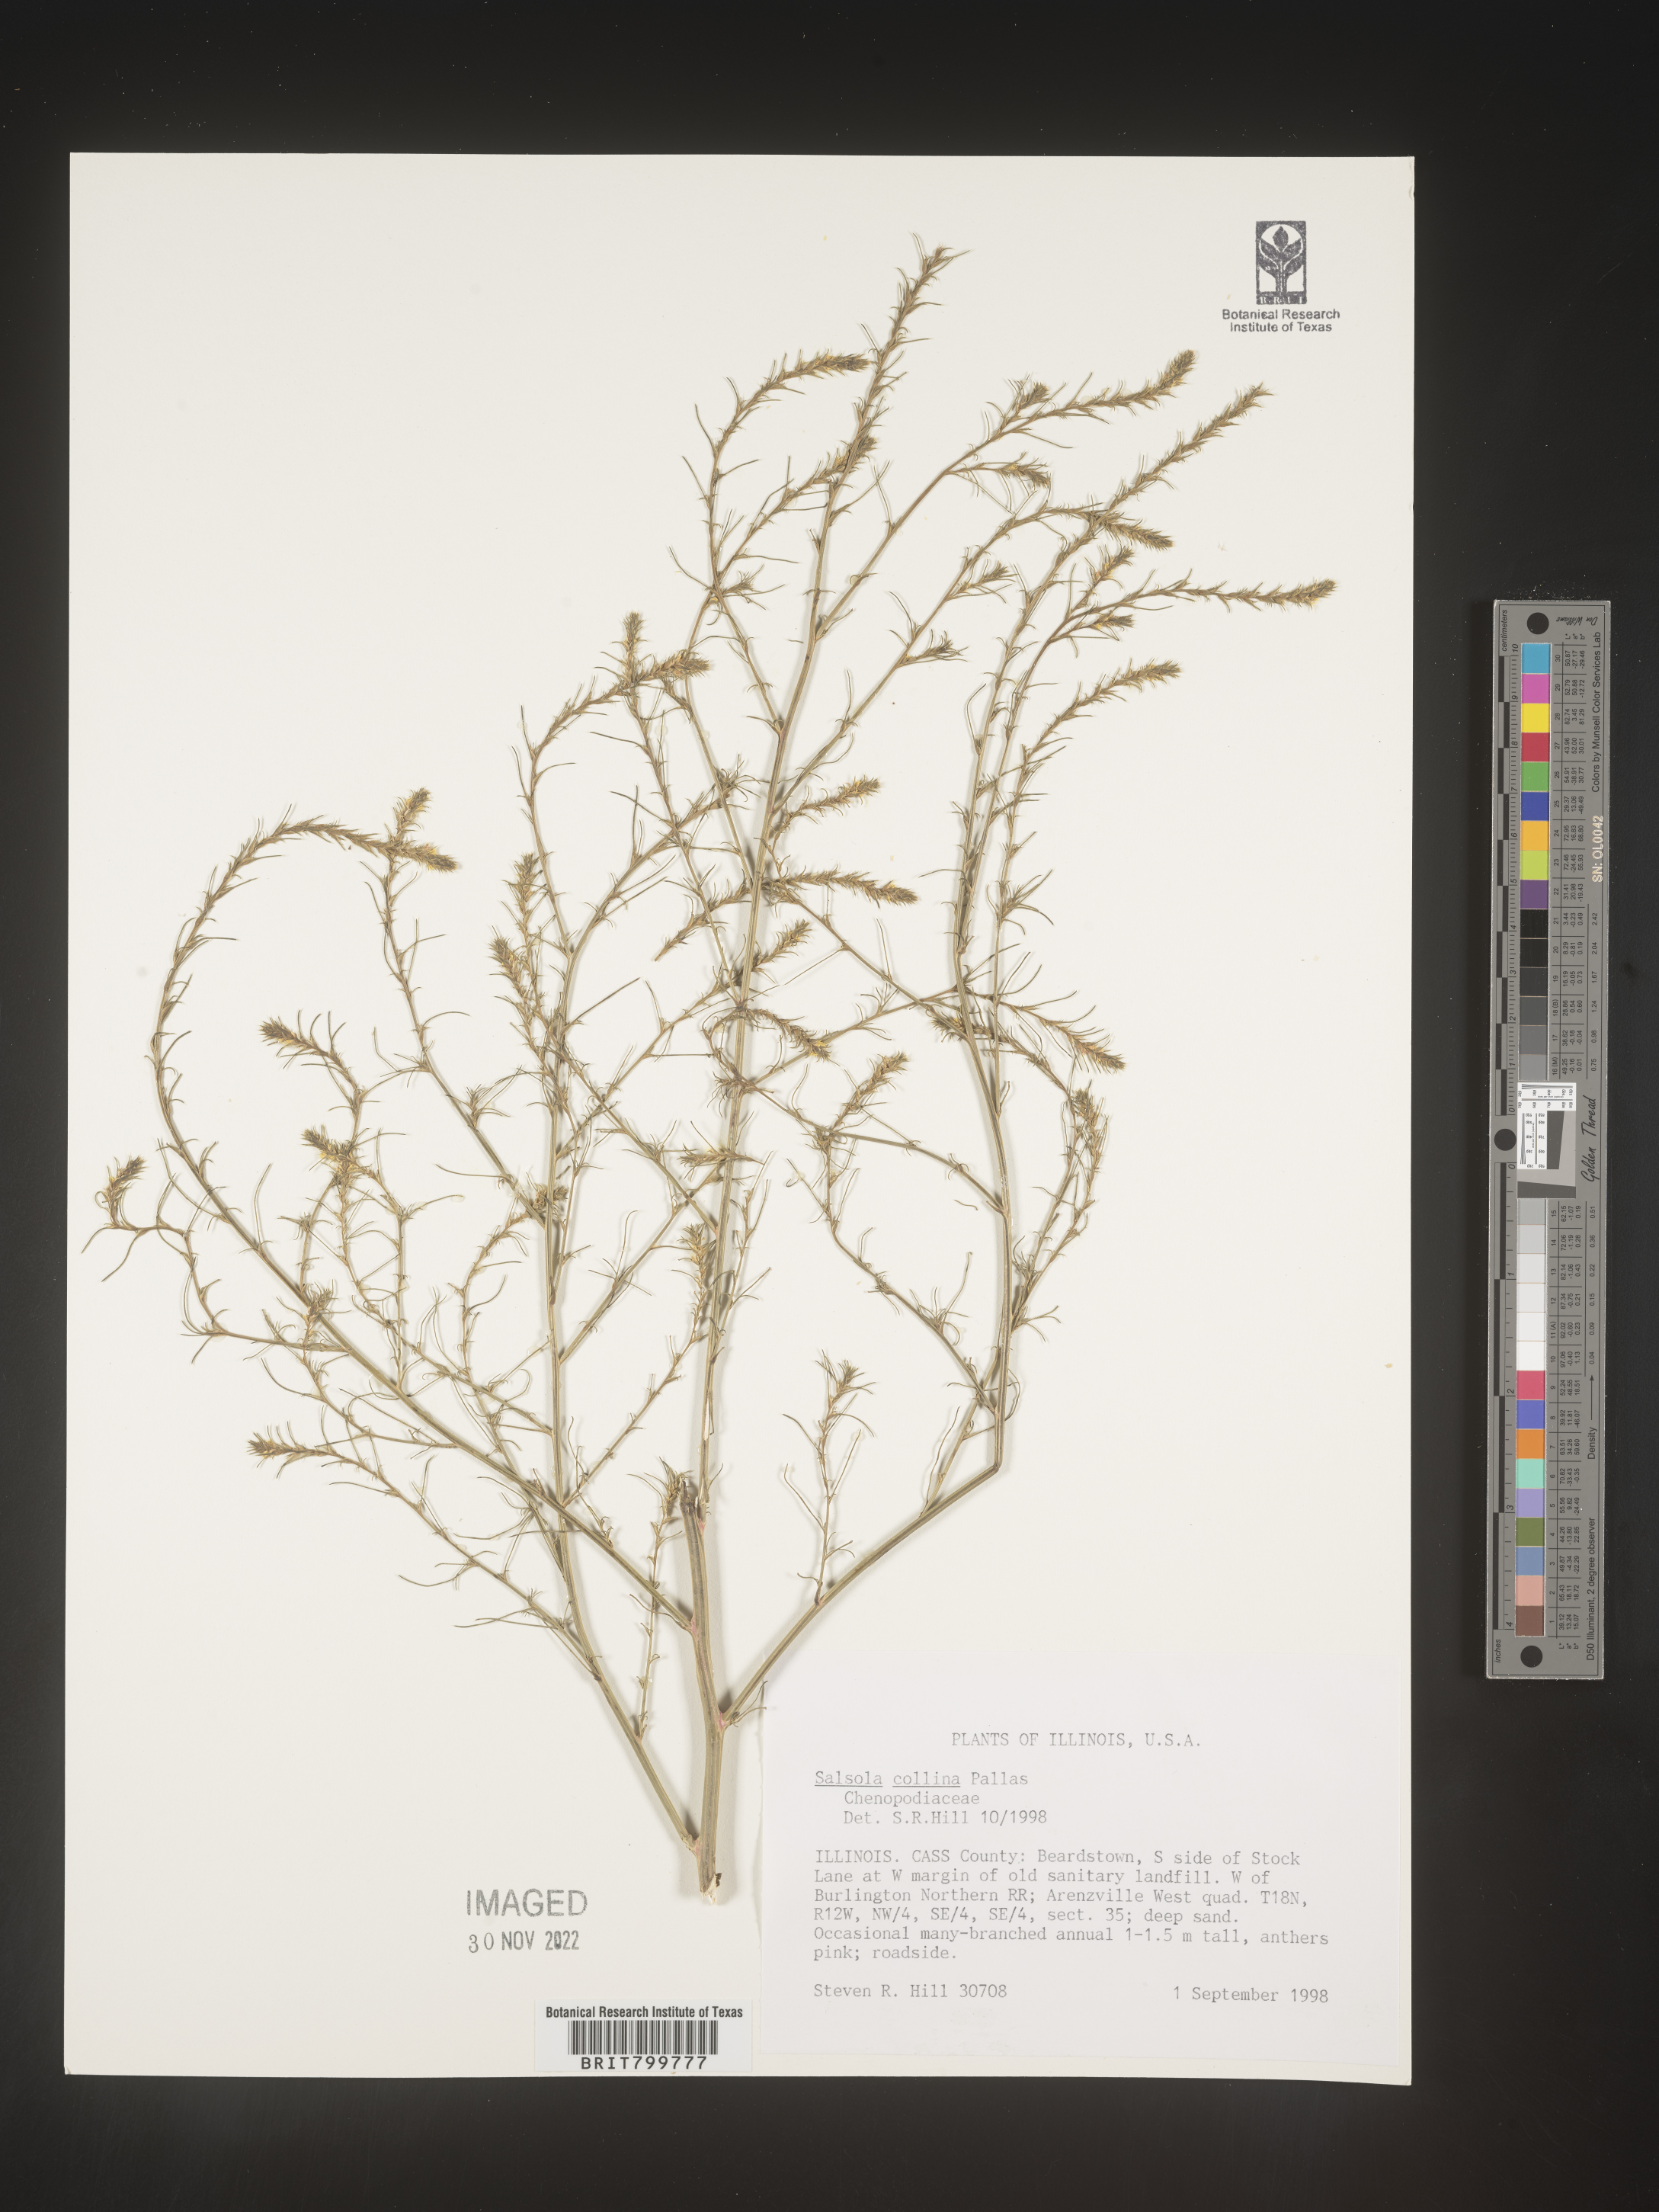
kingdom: Plantae
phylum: Tracheophyta
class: Magnoliopsida
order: Caryophyllales
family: Amaranthaceae
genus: Salsola
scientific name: Salsola tragus
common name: Prickly russian thistle
